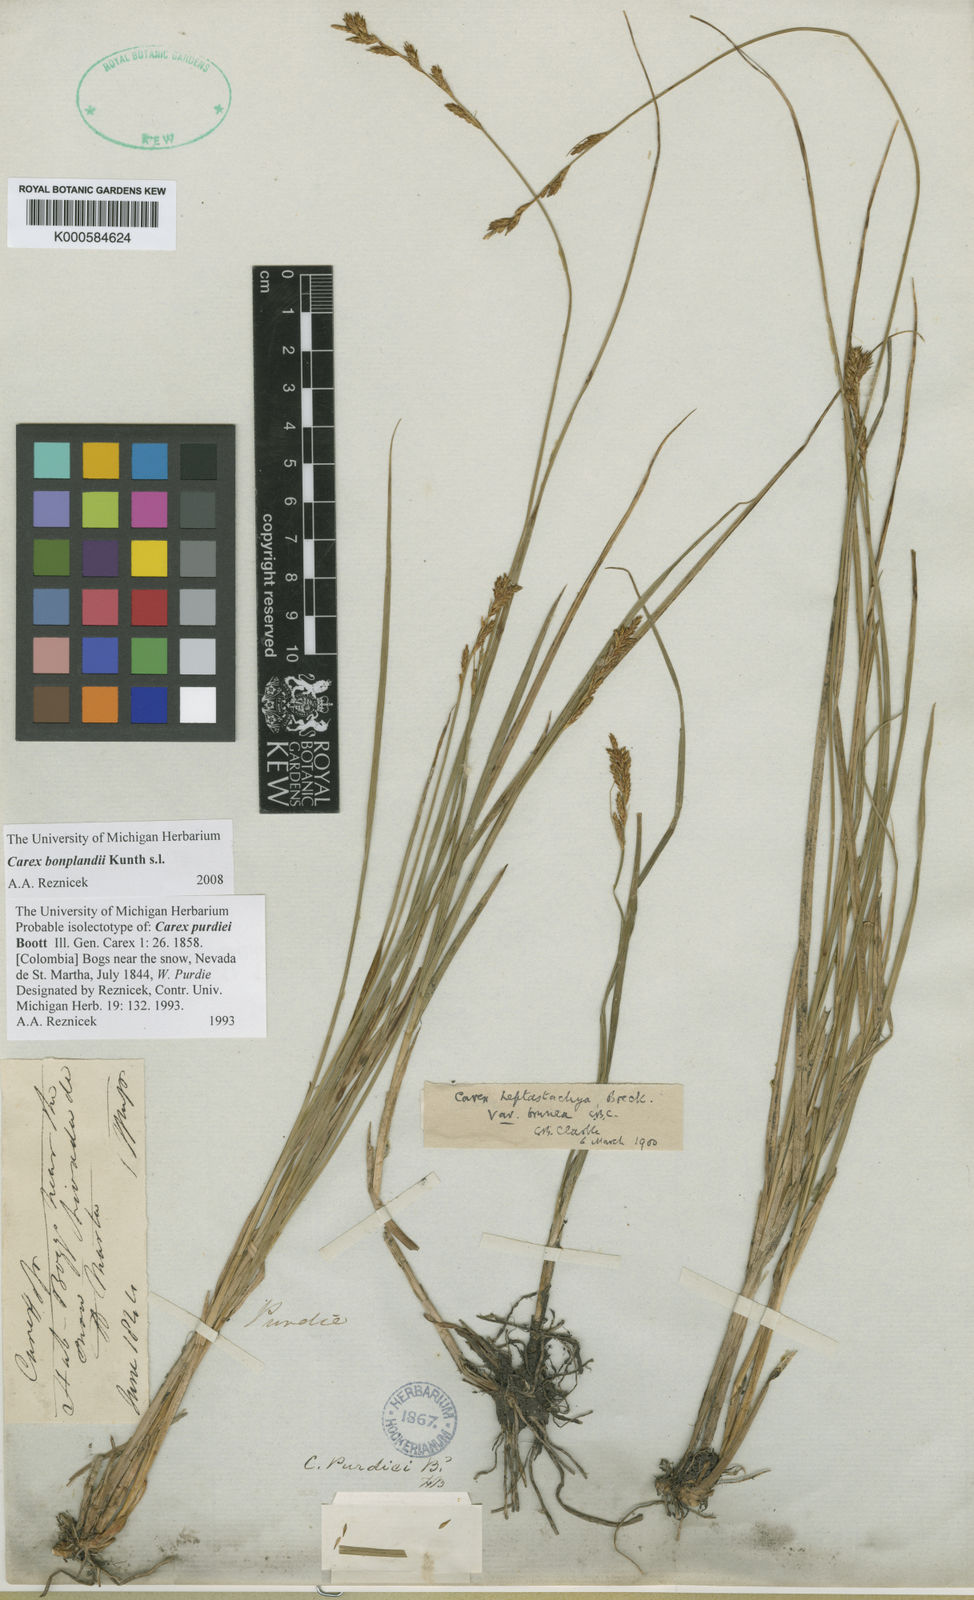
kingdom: Plantae
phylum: Tracheophyta
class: Liliopsida
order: Poales
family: Cyperaceae
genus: Carex
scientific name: Carex bonplandii
